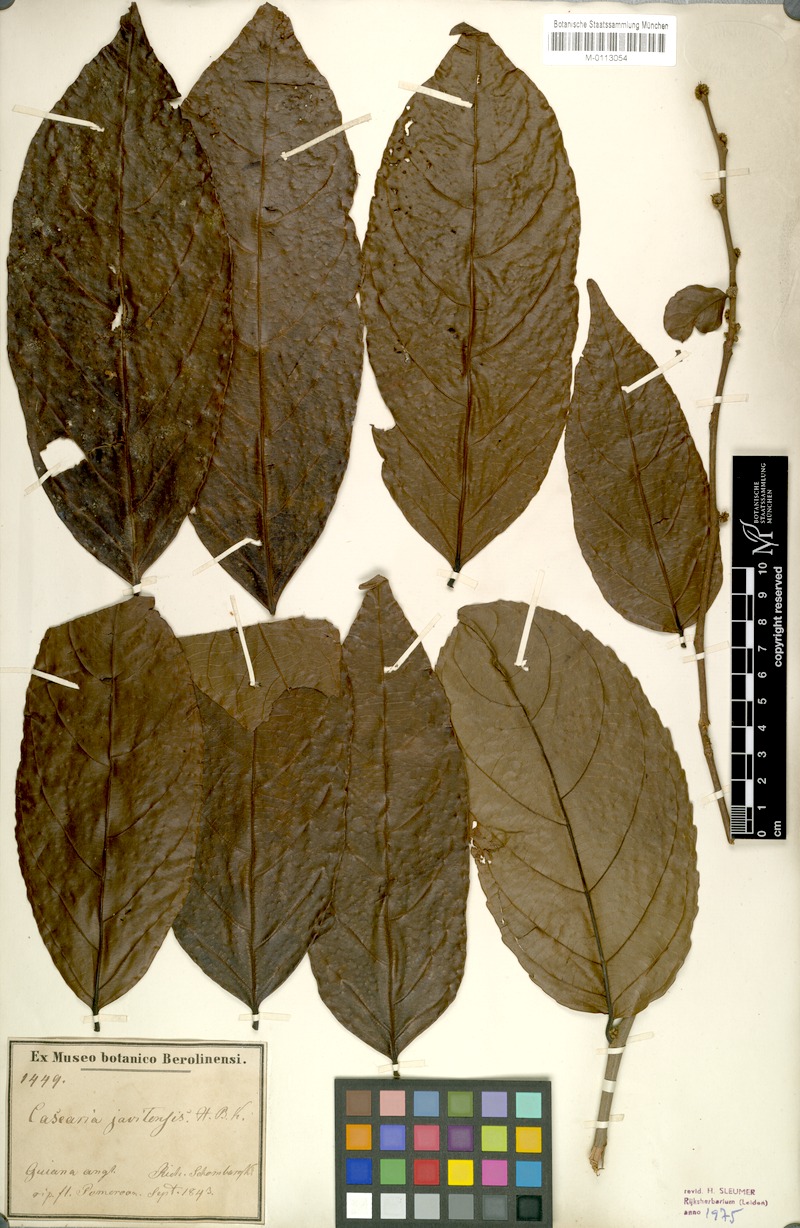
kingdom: Plantae
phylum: Tracheophyta
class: Magnoliopsida
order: Malpighiales
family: Salicaceae
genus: Piparea
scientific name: Piparea multiflora
